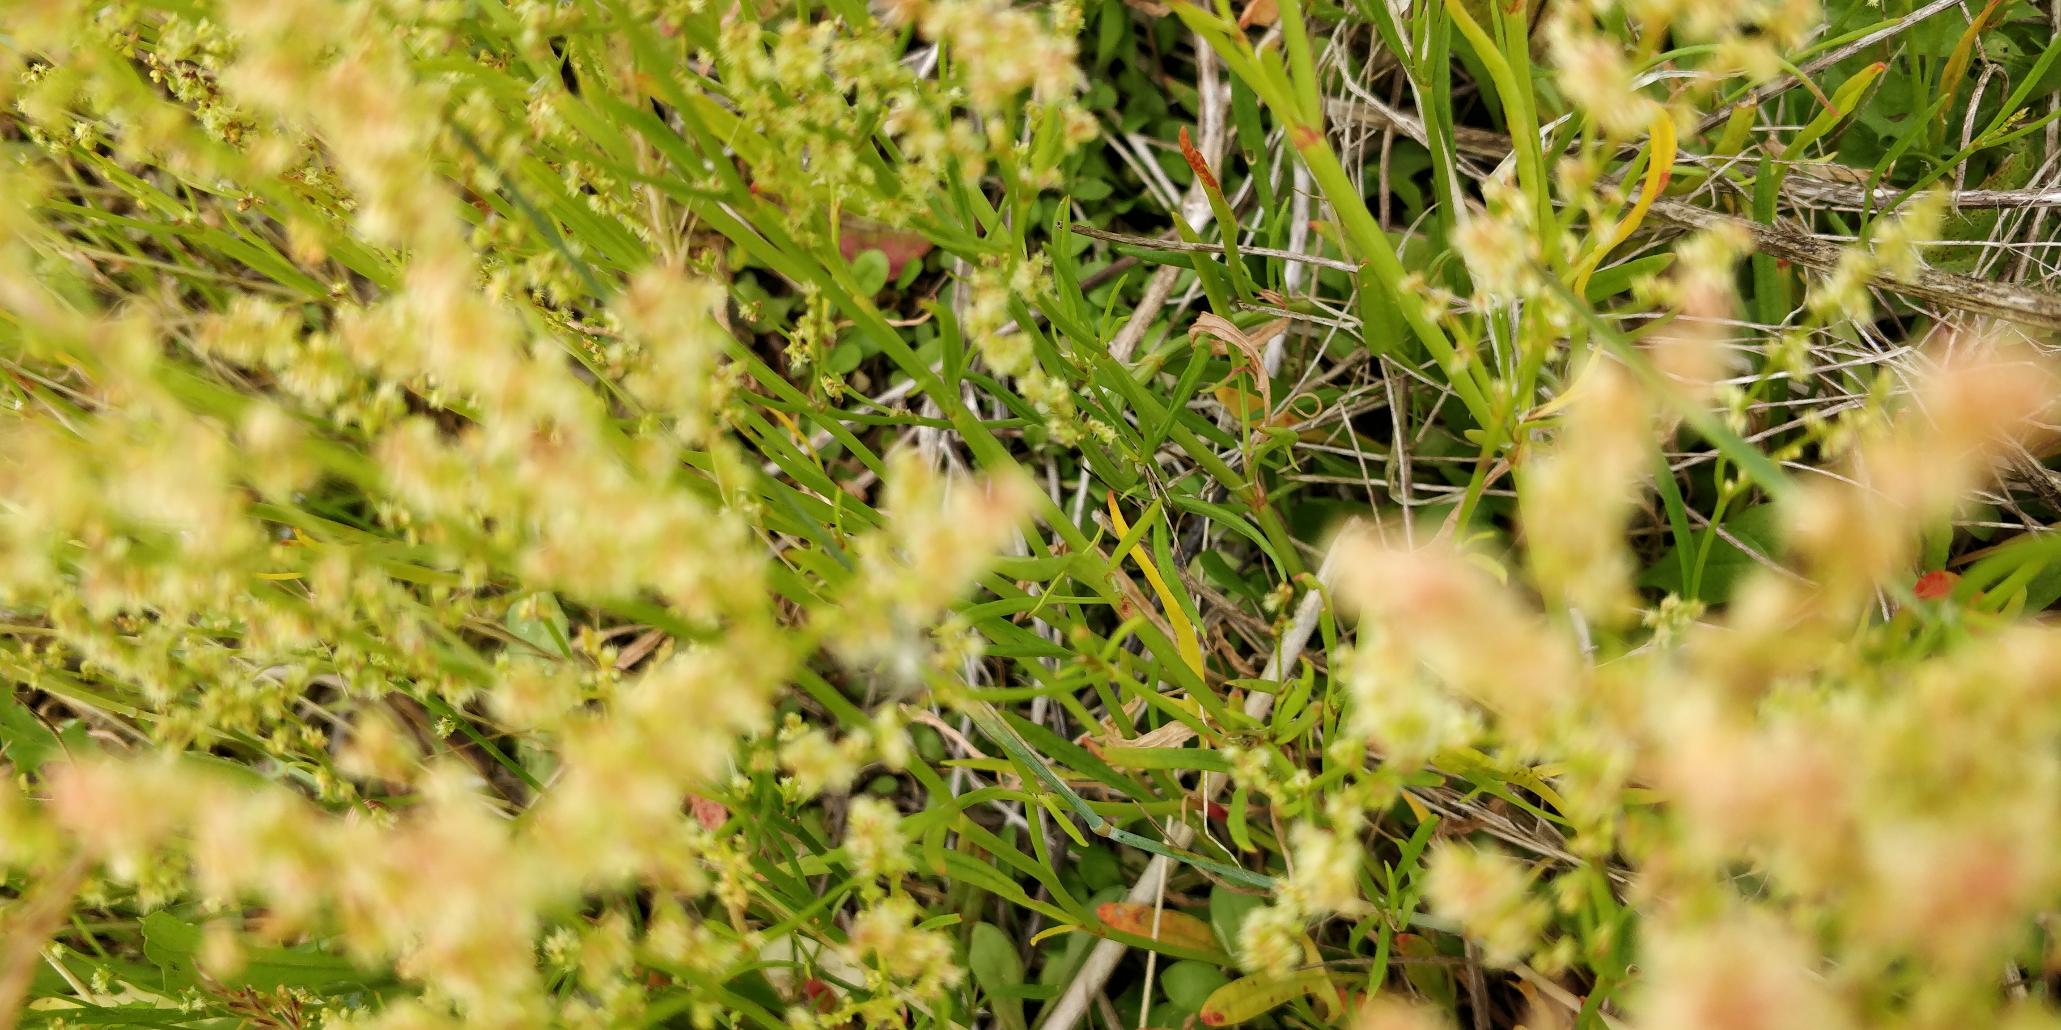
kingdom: Plantae
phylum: Tracheophyta
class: Magnoliopsida
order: Caryophyllales
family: Polygonaceae
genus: Rumex
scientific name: Rumex acetosella
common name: Rødknæ
